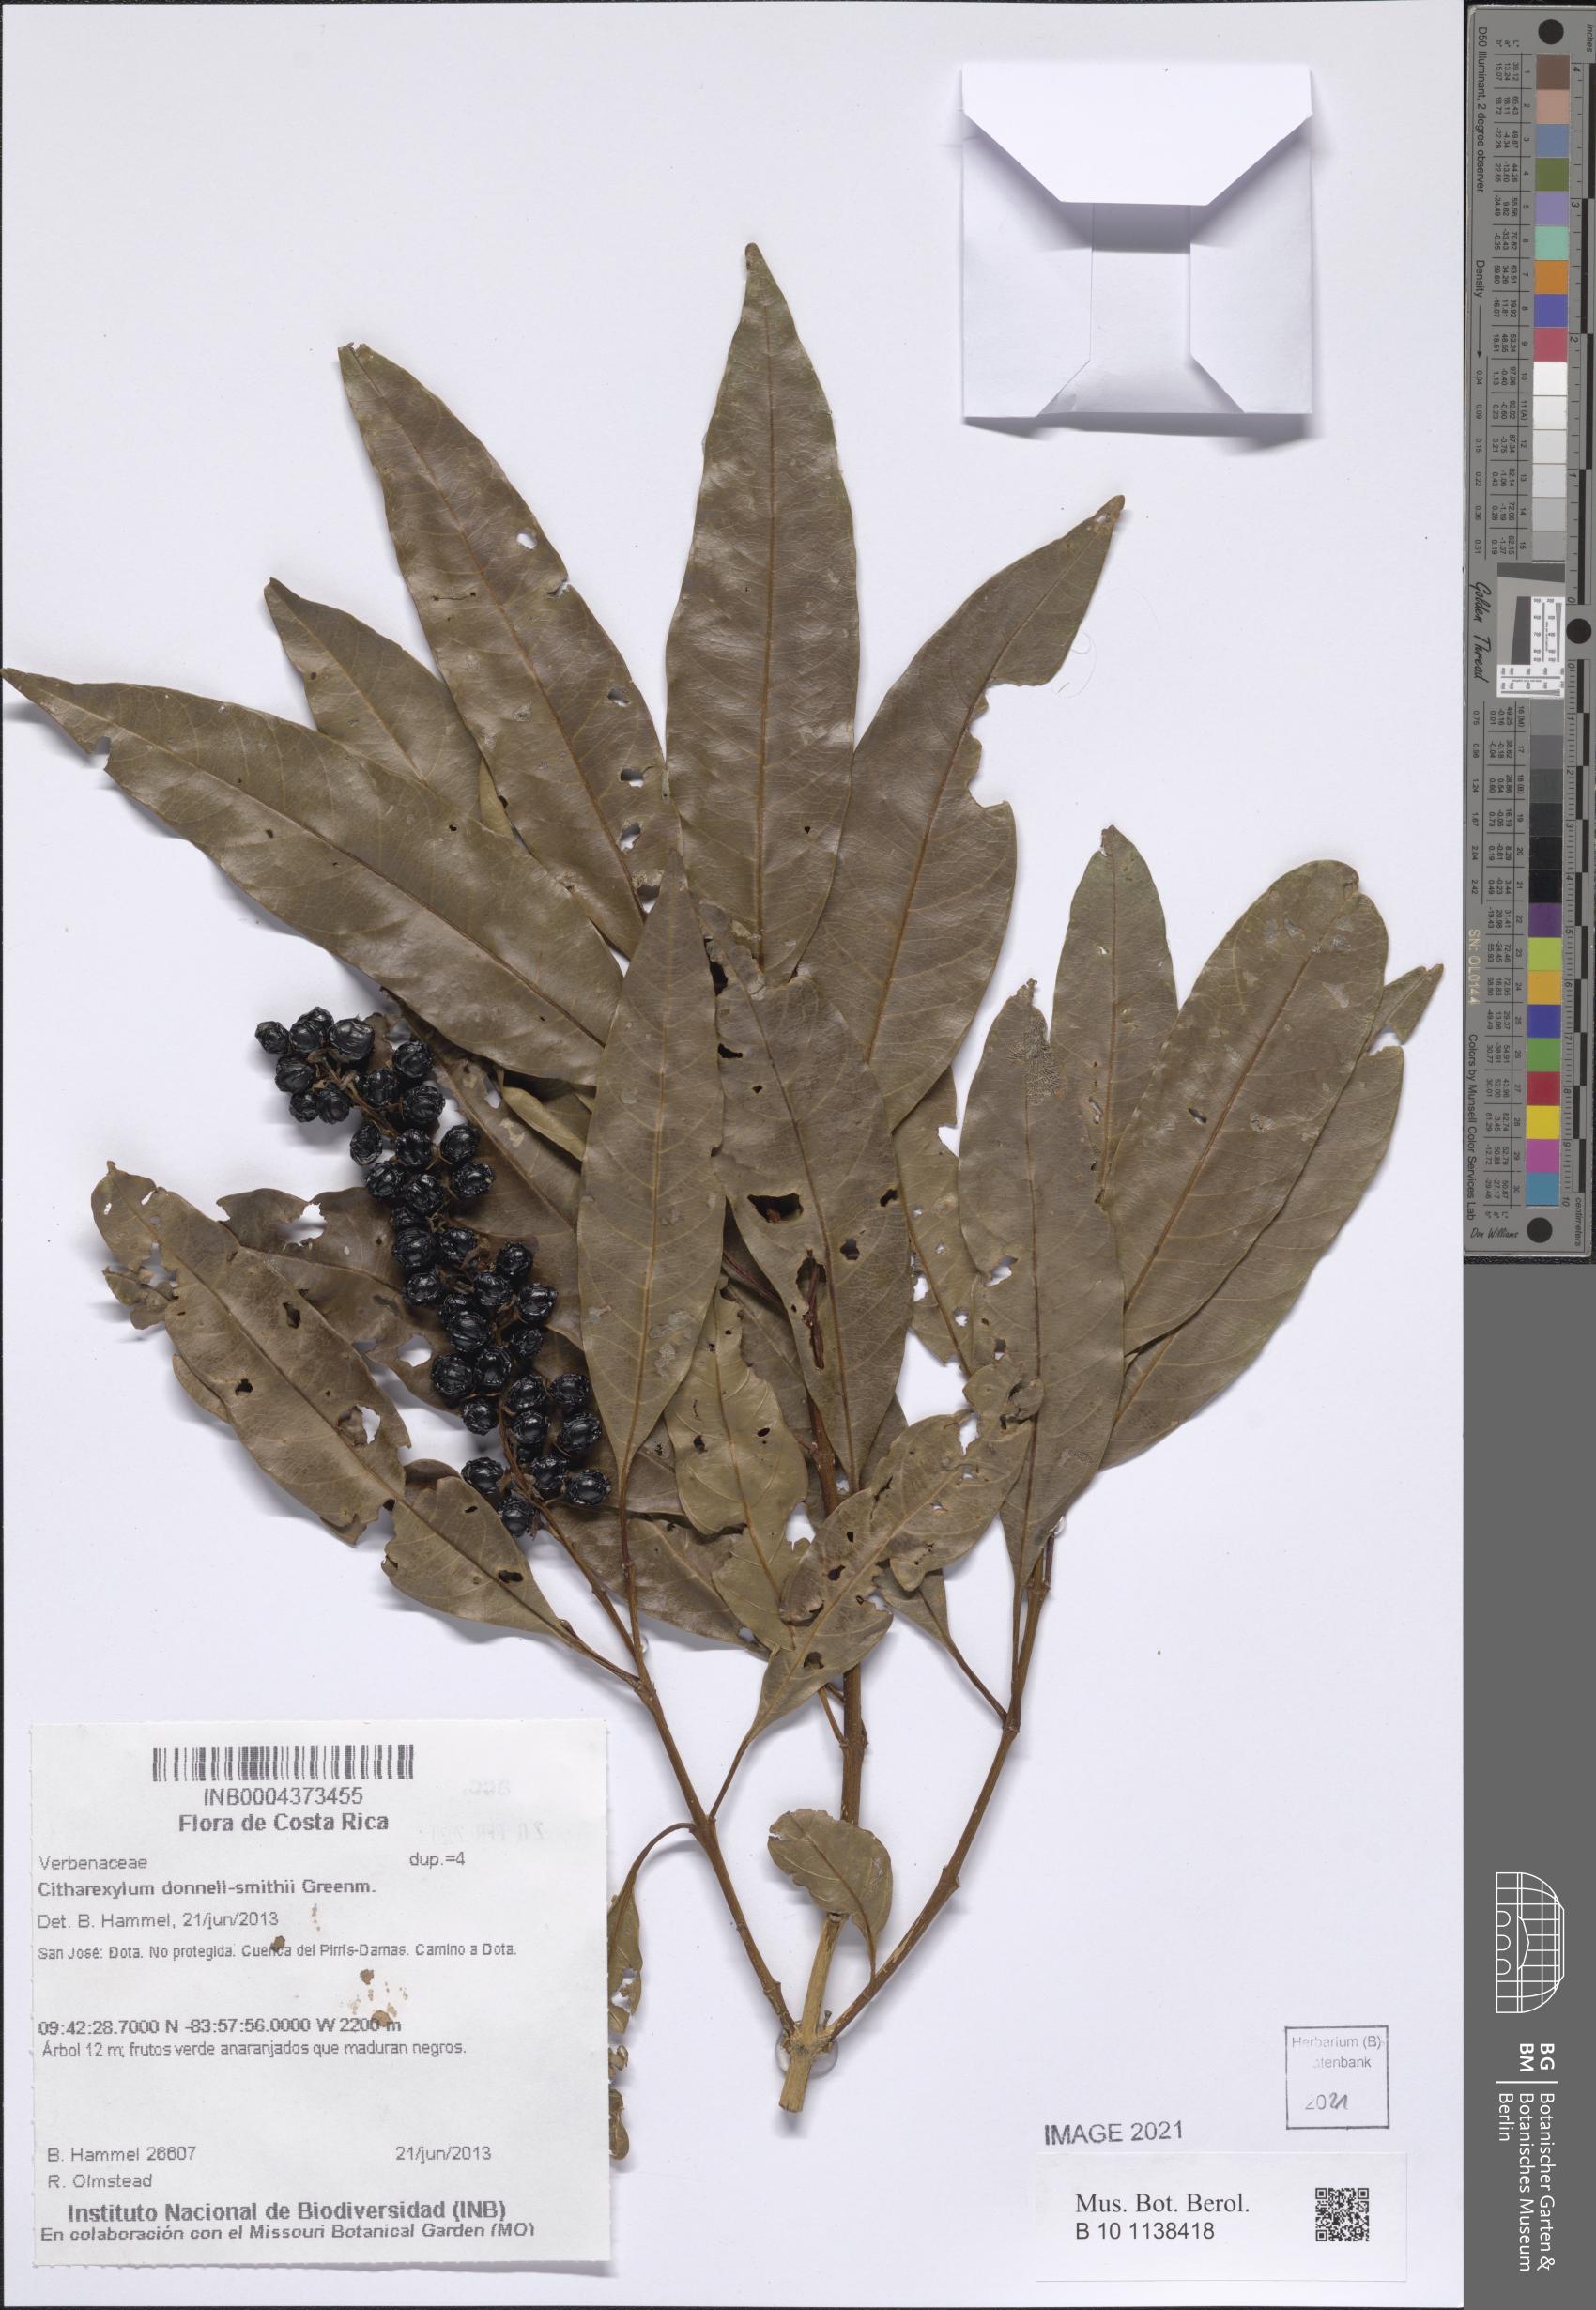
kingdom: Plantae
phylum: Tracheophyta
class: Magnoliopsida
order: Lamiales
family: Verbenaceae
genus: Citharexylum
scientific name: Citharexylum donnell-smithii
